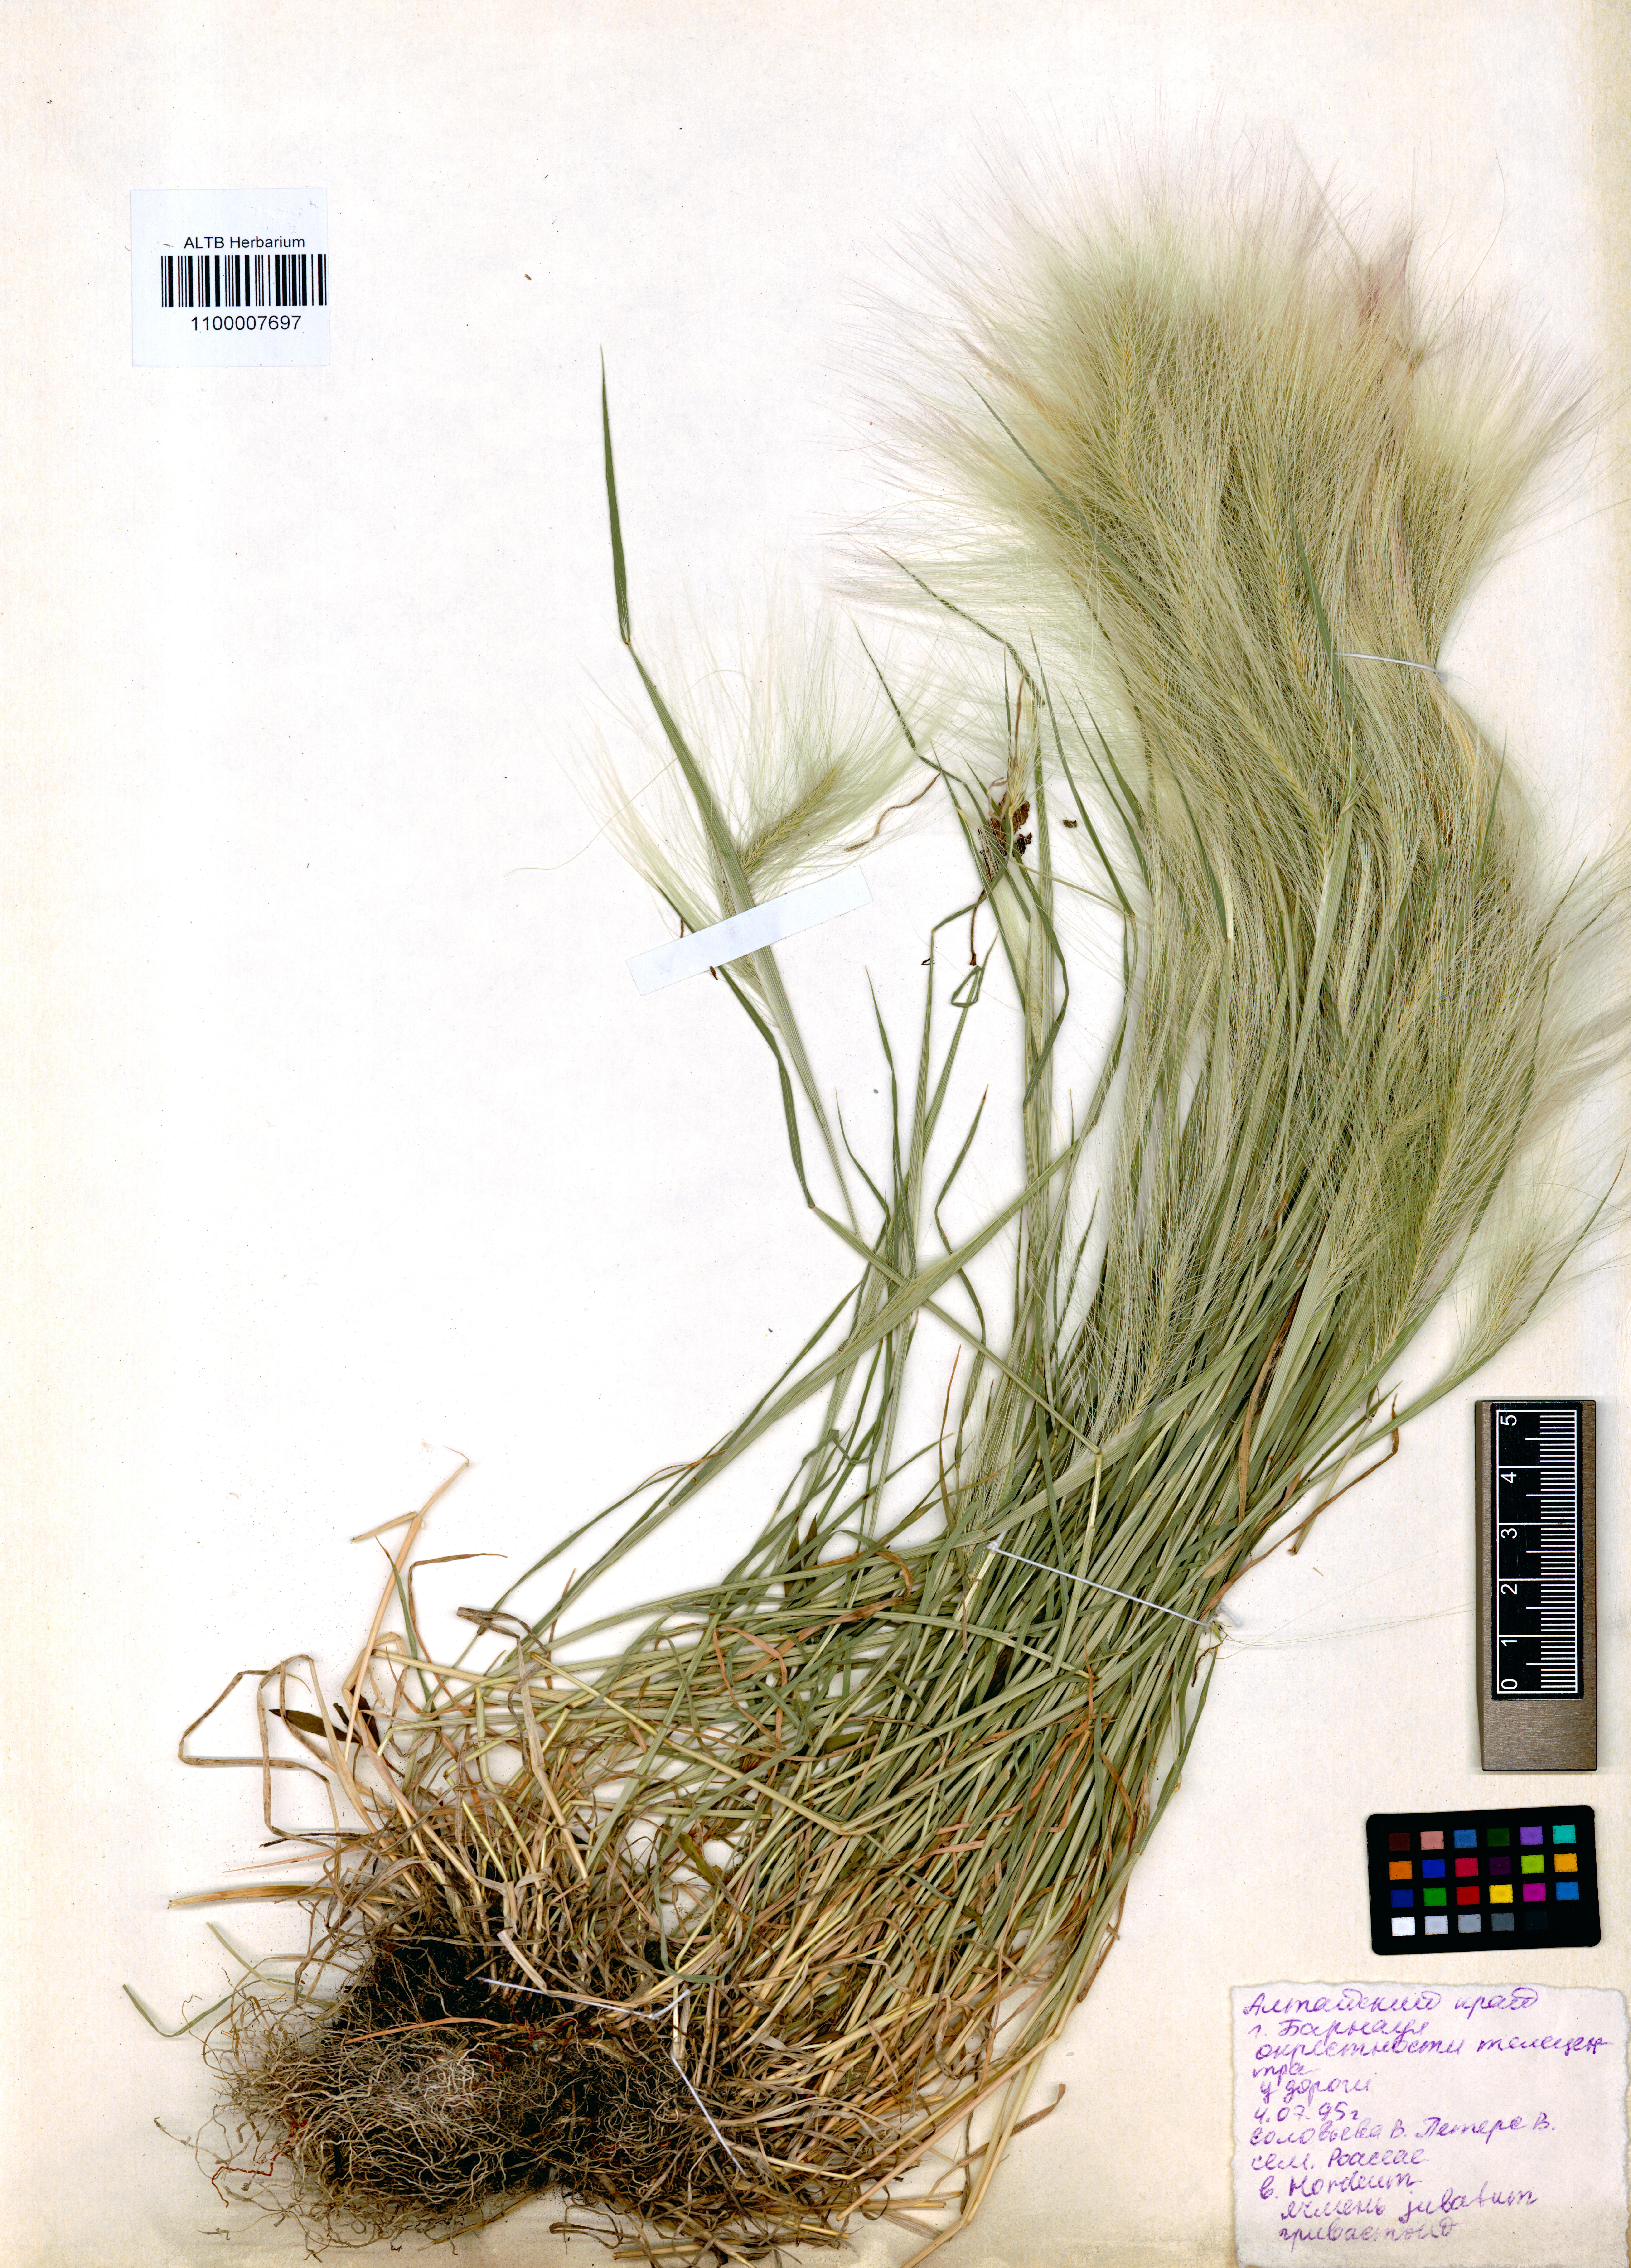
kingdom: Plantae
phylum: Tracheophyta
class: Liliopsida
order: Poales
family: Poaceae
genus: Hordeum
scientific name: Hordeum jubatum
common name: Foxtail barley
